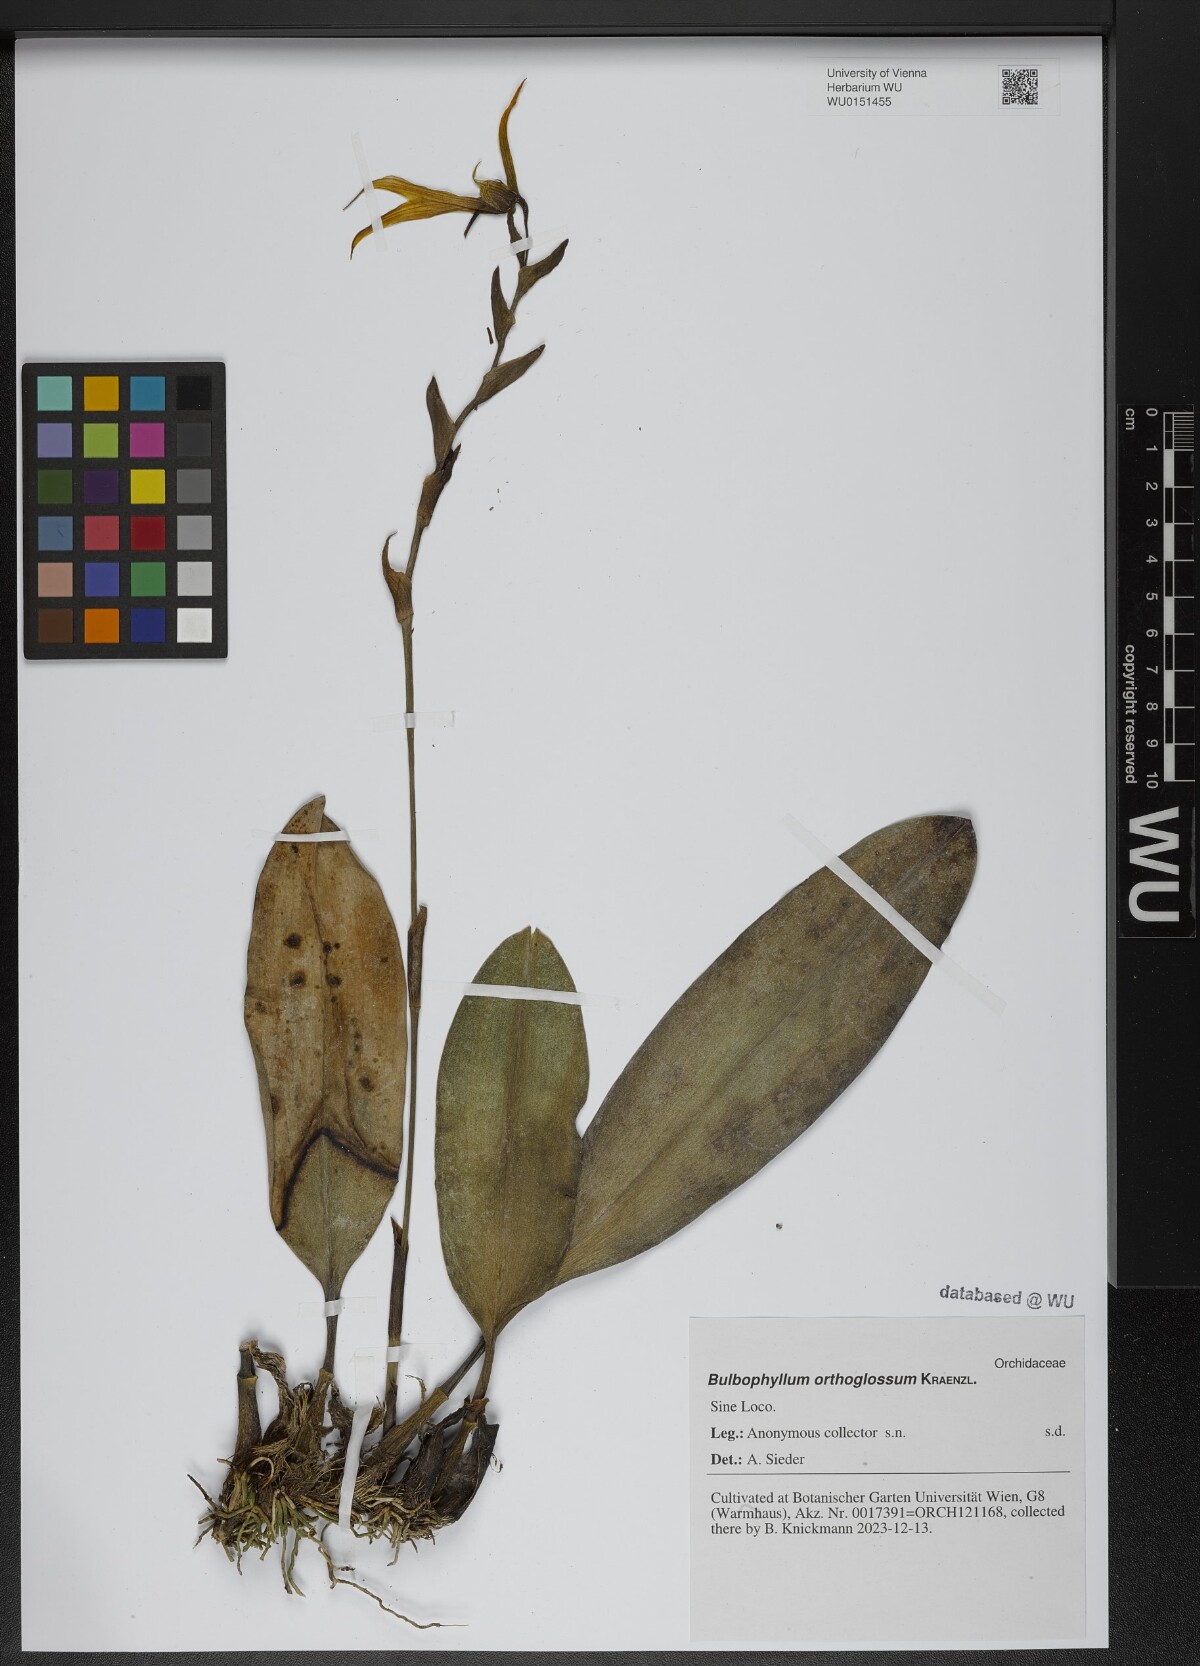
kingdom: Plantae
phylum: Tracheophyta
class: Liliopsida
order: Asparagales
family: Orchidaceae
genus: Bulbophyllum
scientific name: Bulbophyllum amplebracteatum
